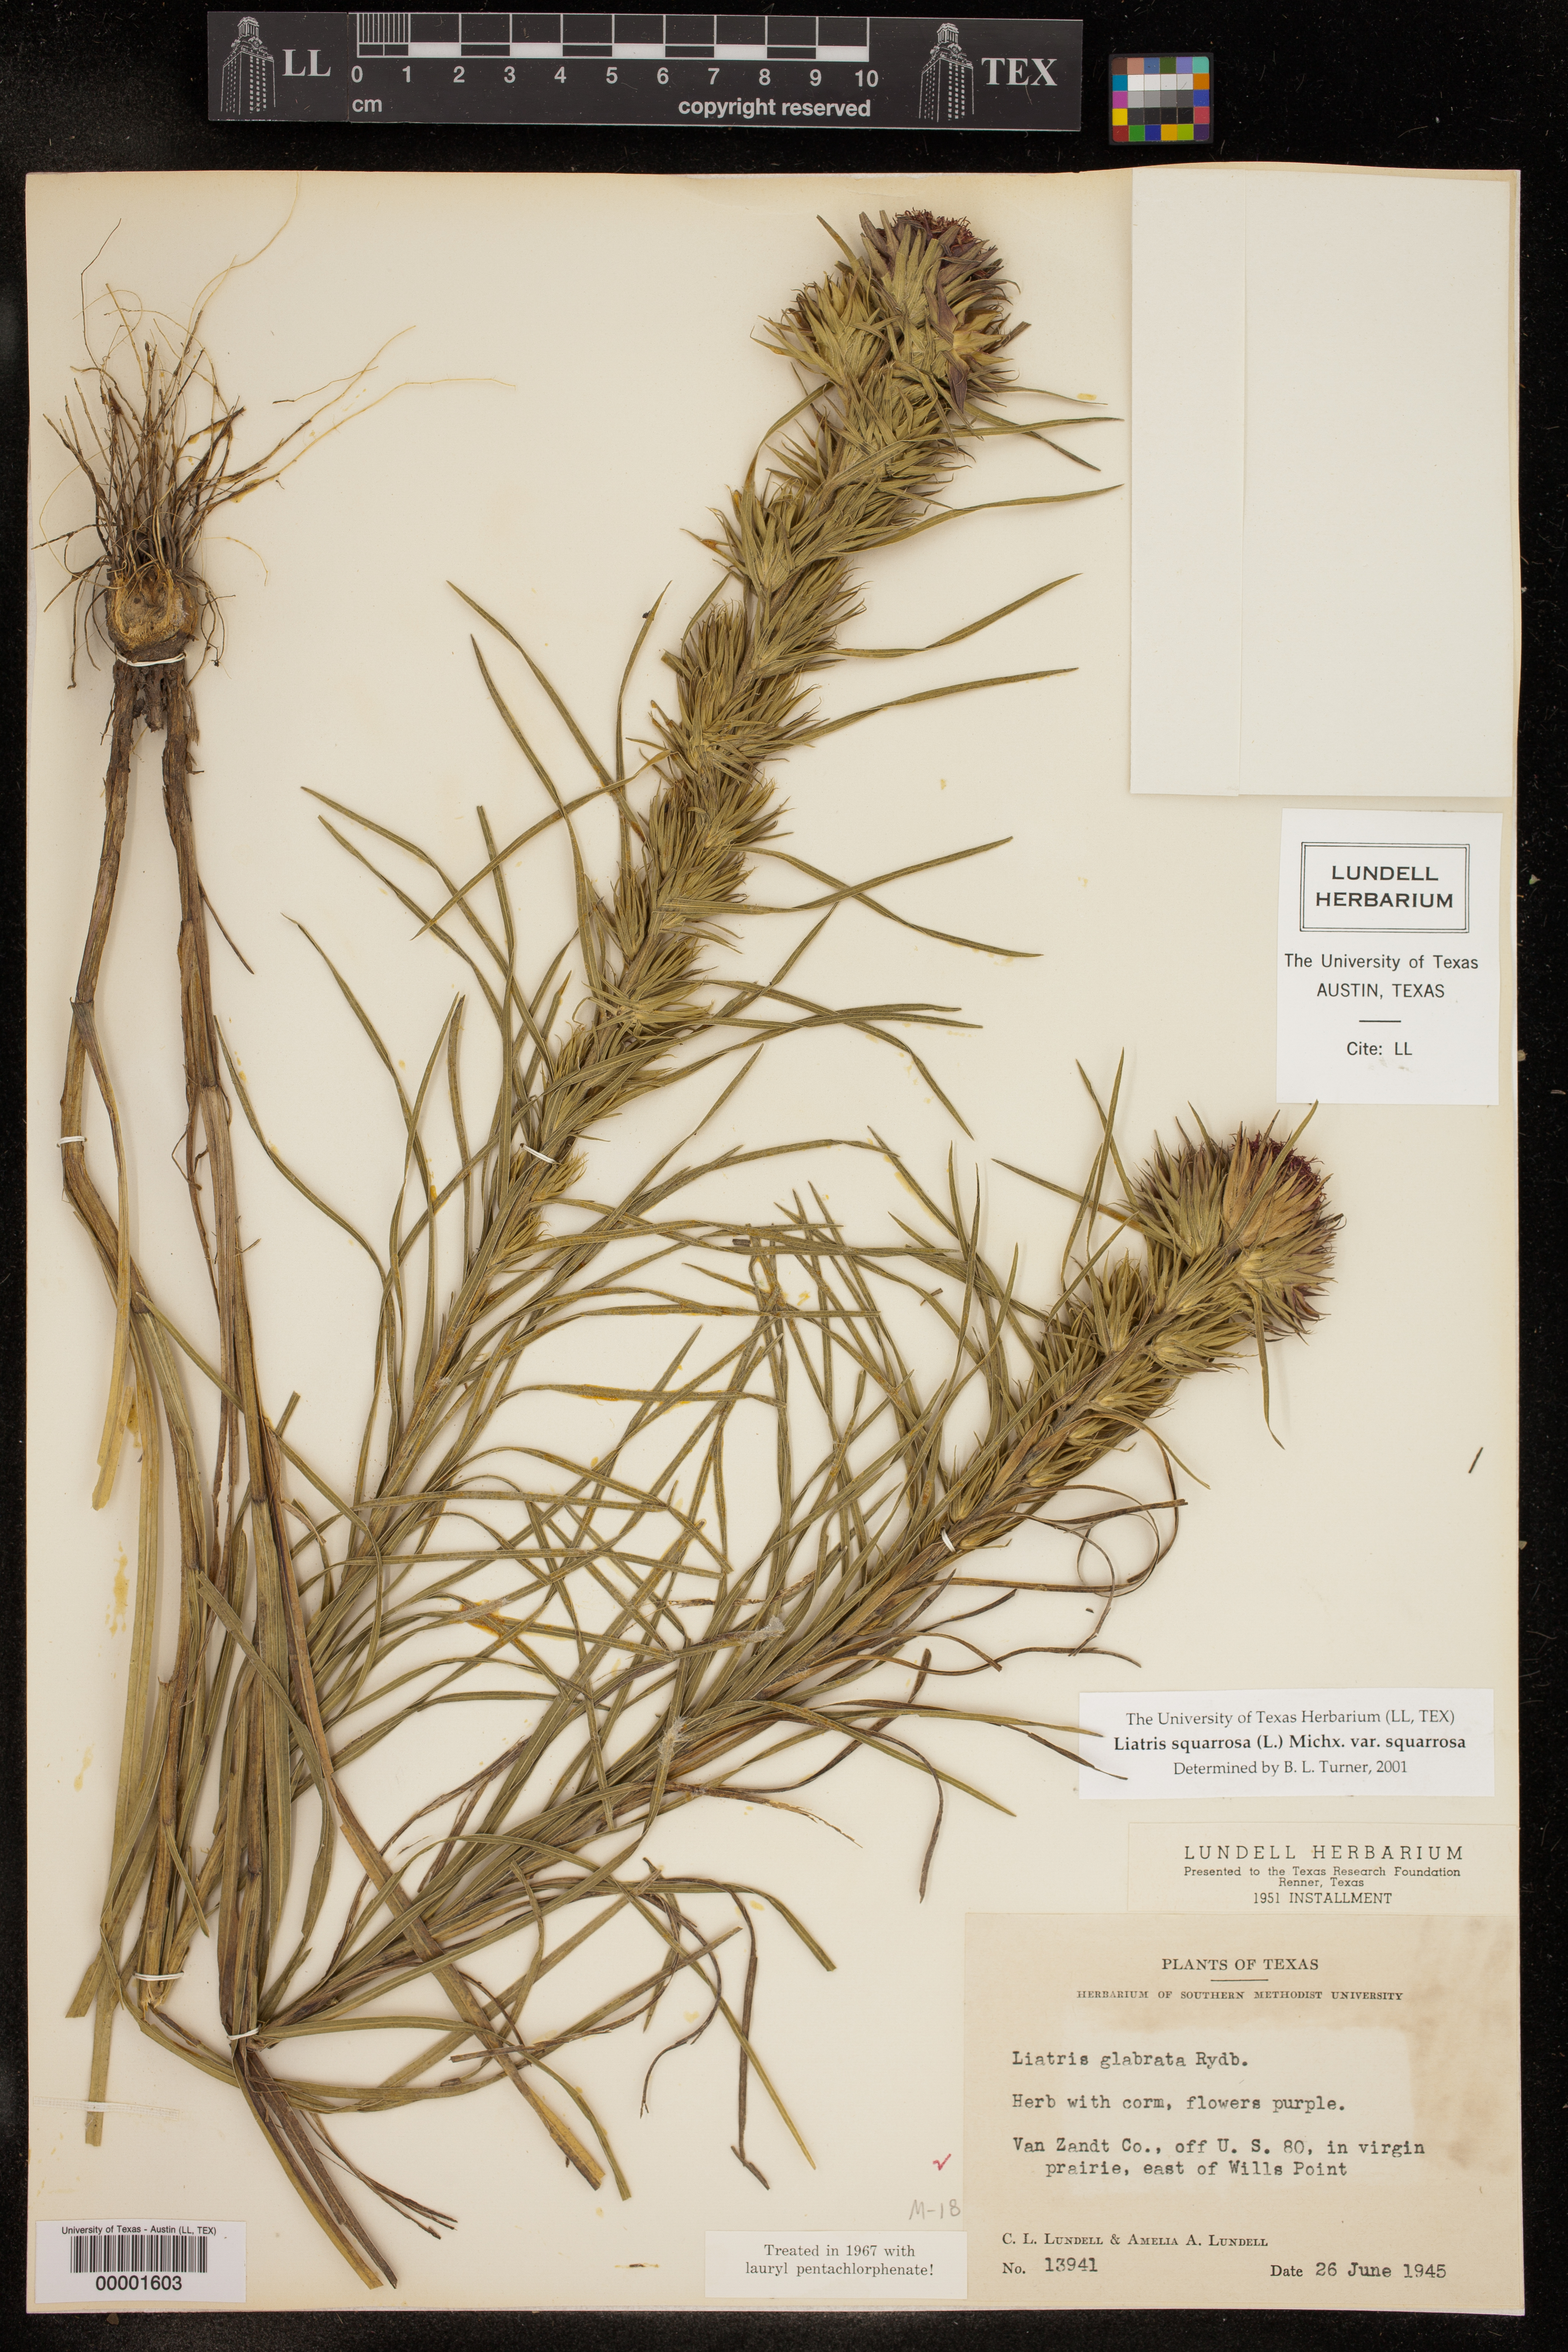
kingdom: Plantae
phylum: Tracheophyta
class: Magnoliopsida
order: Asterales
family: Asteraceae
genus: Liatris
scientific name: Liatris squarrosa
